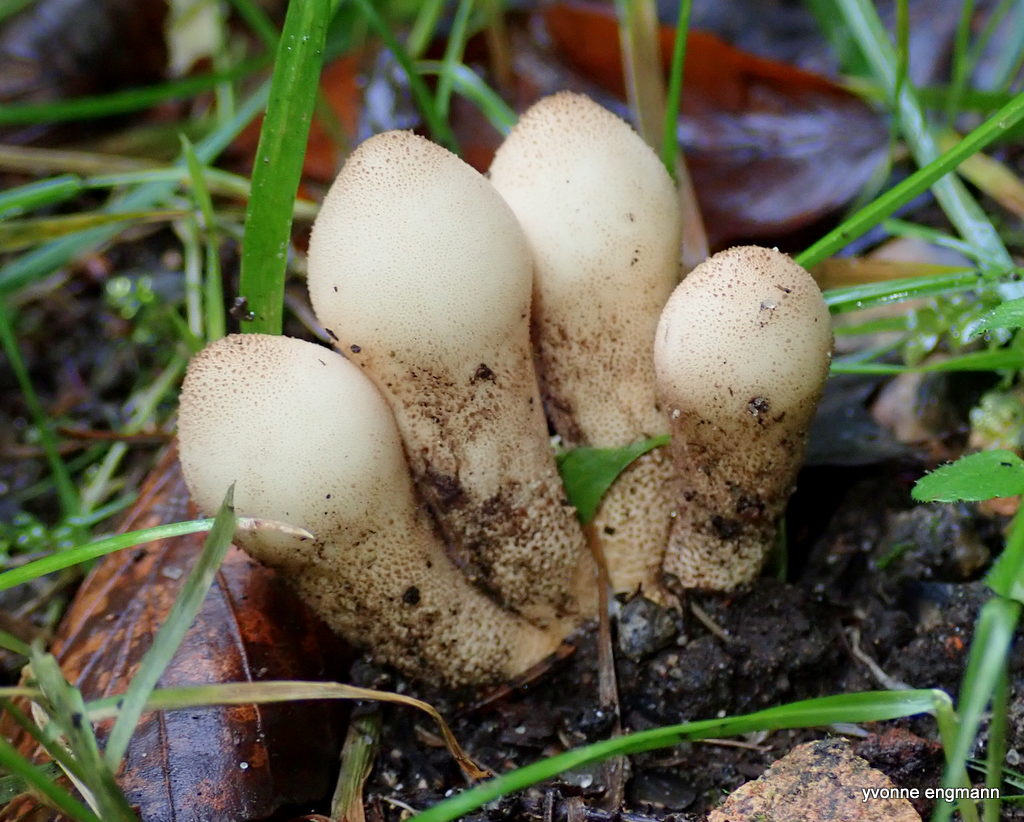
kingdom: Fungi
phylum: Basidiomycota
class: Agaricomycetes
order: Agaricales
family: Lycoperdaceae
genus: Apioperdon
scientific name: Apioperdon pyriforme
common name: pære-støvbold
